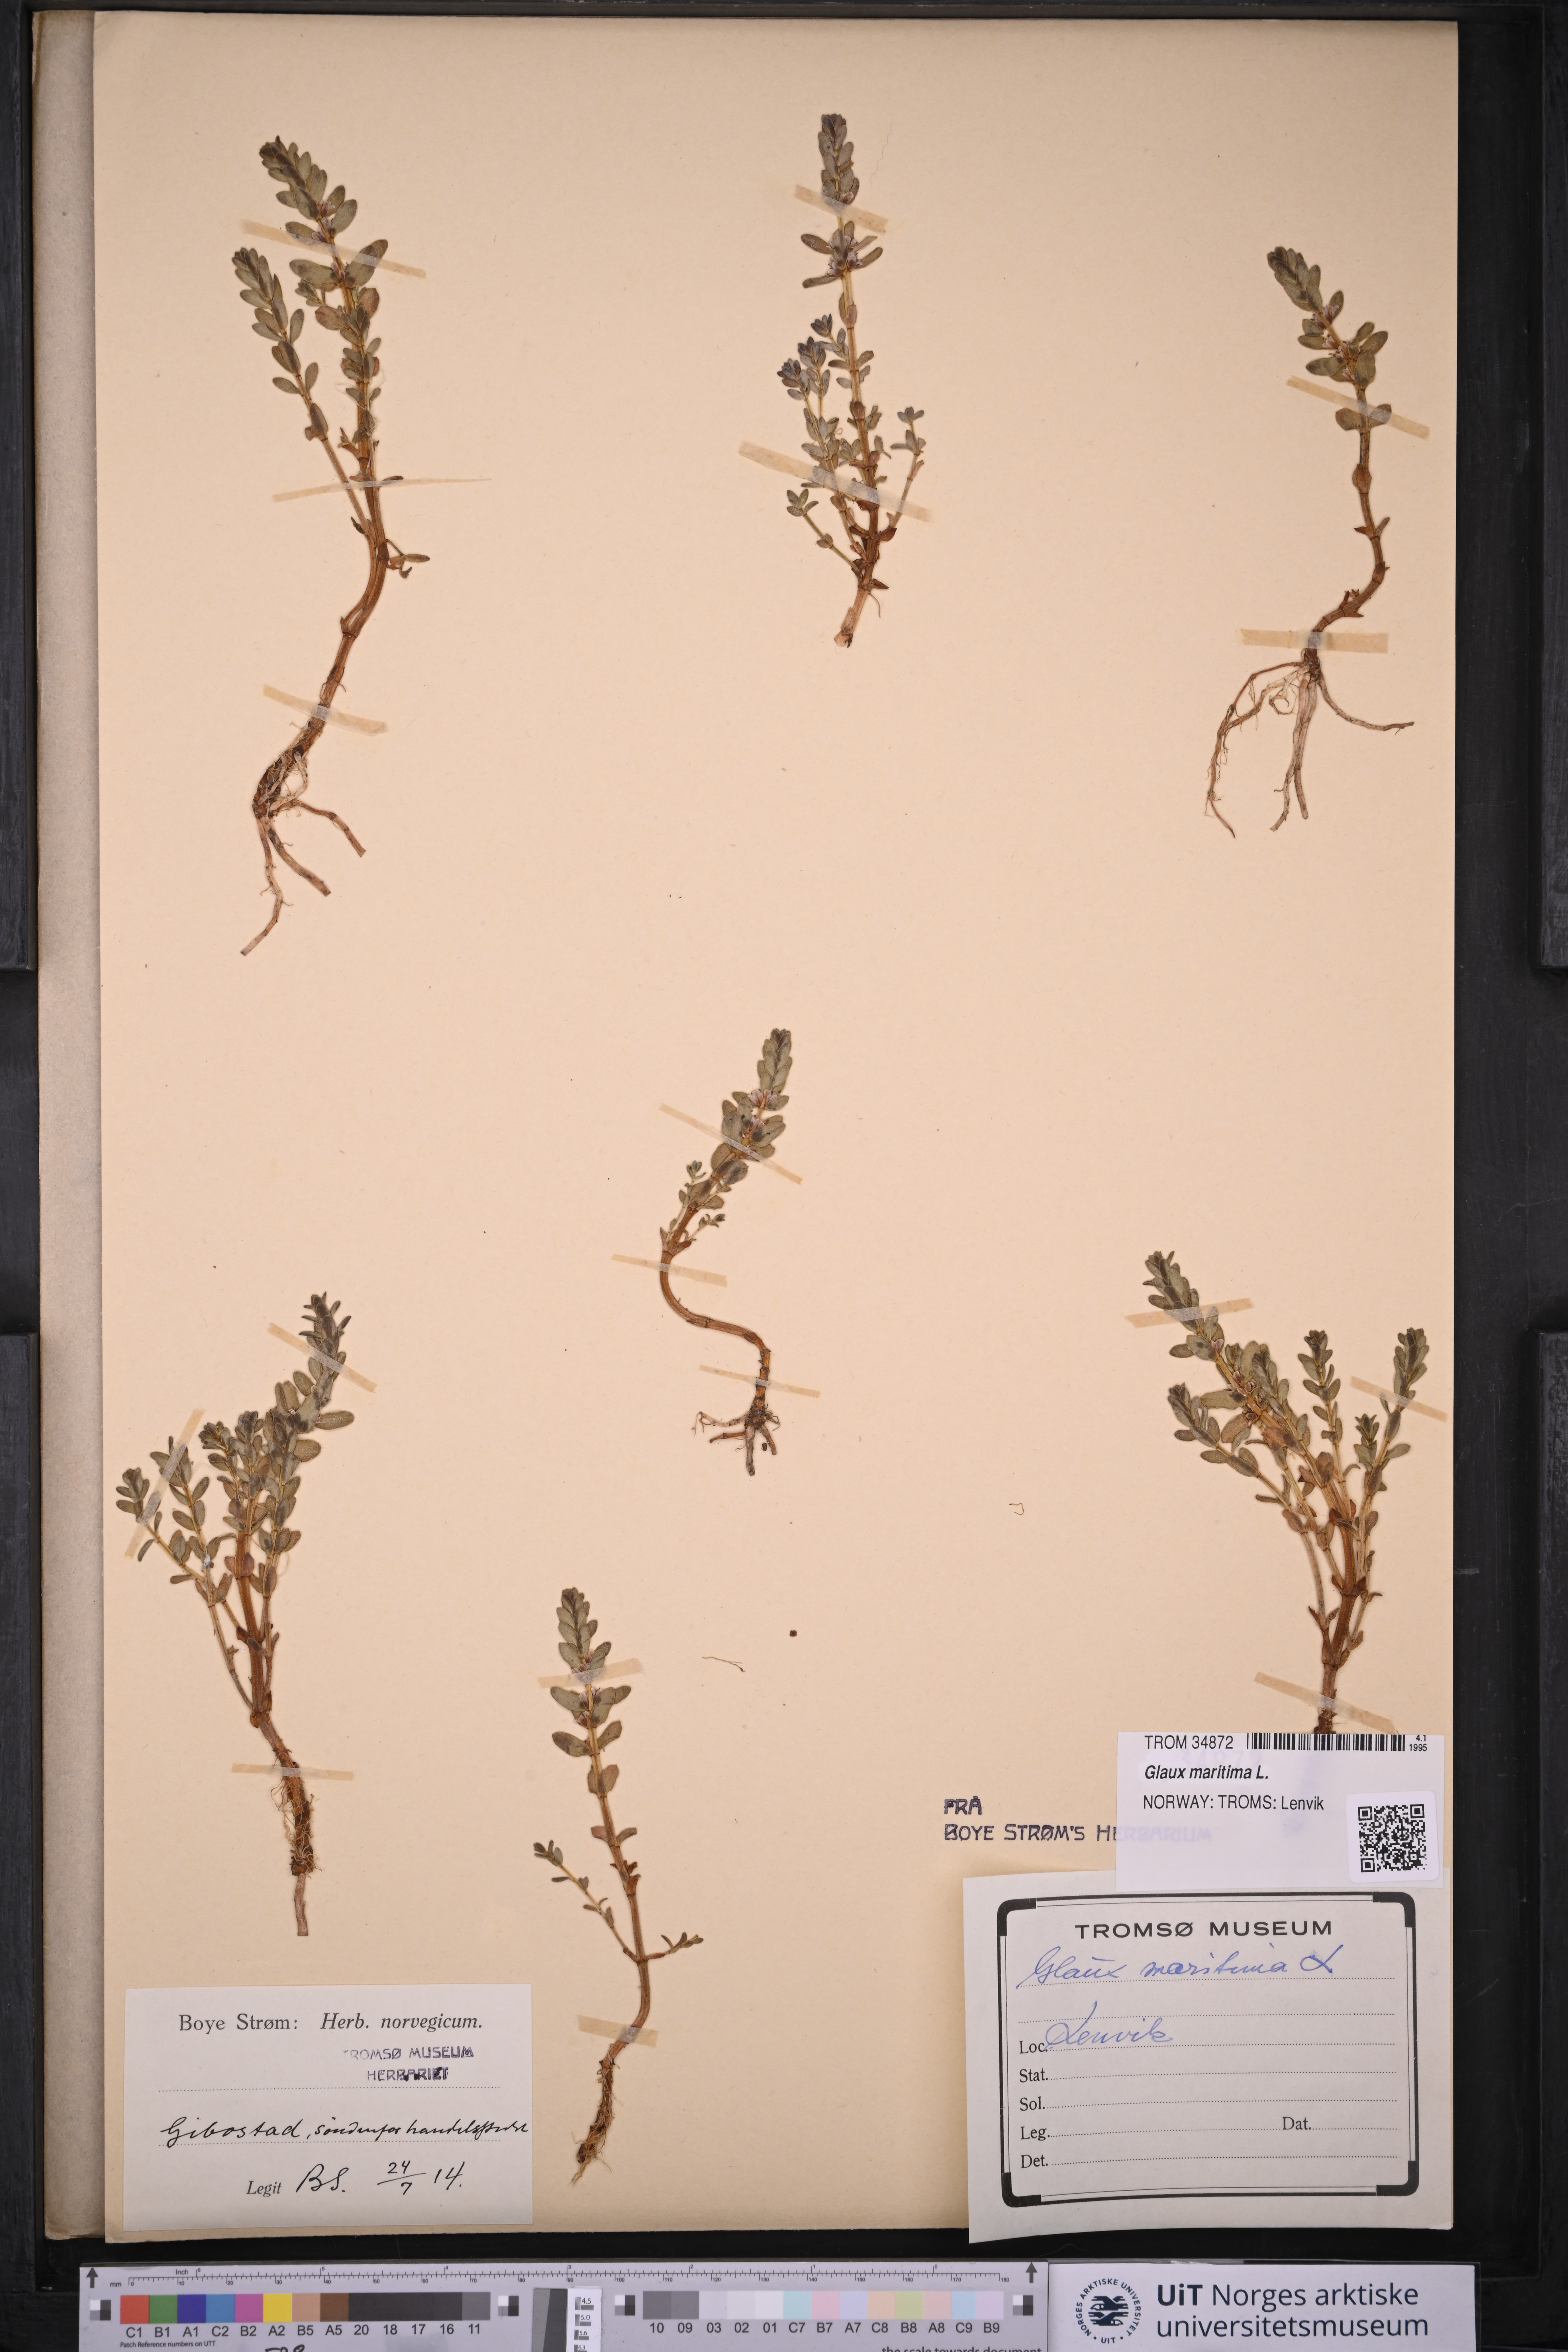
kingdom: Plantae
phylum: Tracheophyta
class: Magnoliopsida
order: Ericales
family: Primulaceae
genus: Lysimachia
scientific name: Lysimachia maritima
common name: Sea milkwort
